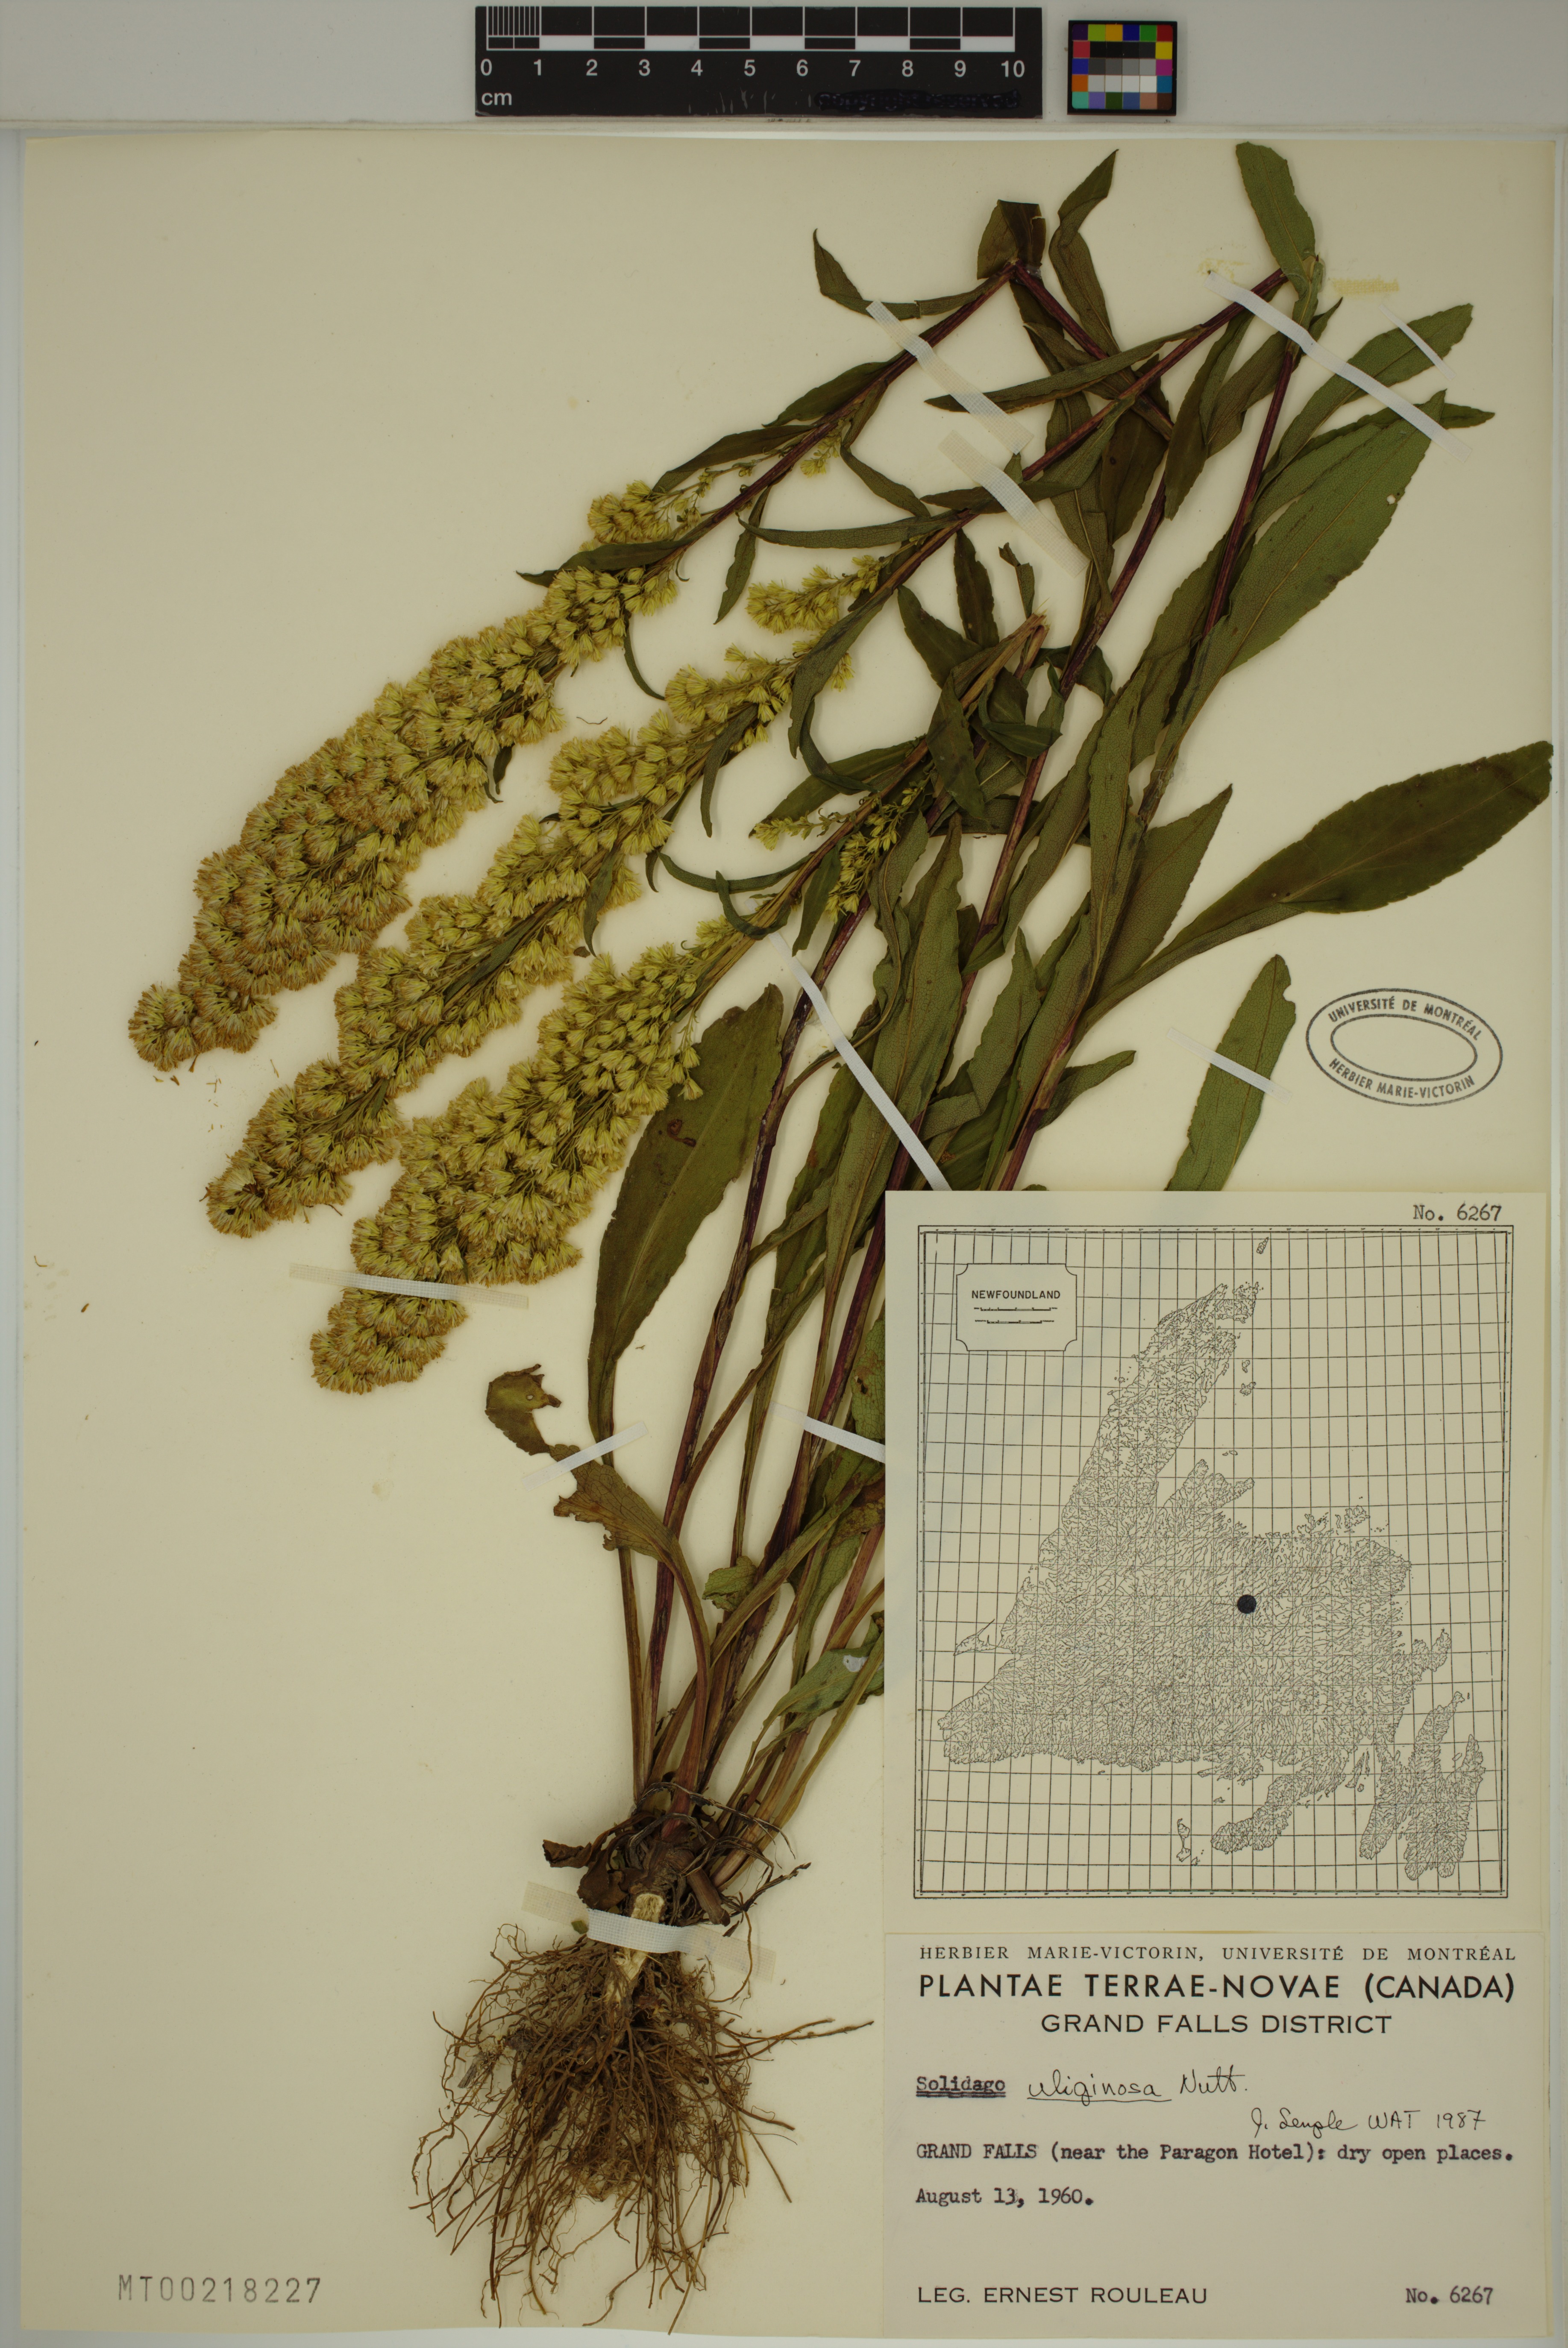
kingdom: Plantae
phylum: Tracheophyta
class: Magnoliopsida
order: Asterales
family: Asteraceae
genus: Solidago
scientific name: Solidago uliginosa
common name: Bog goldenrod
